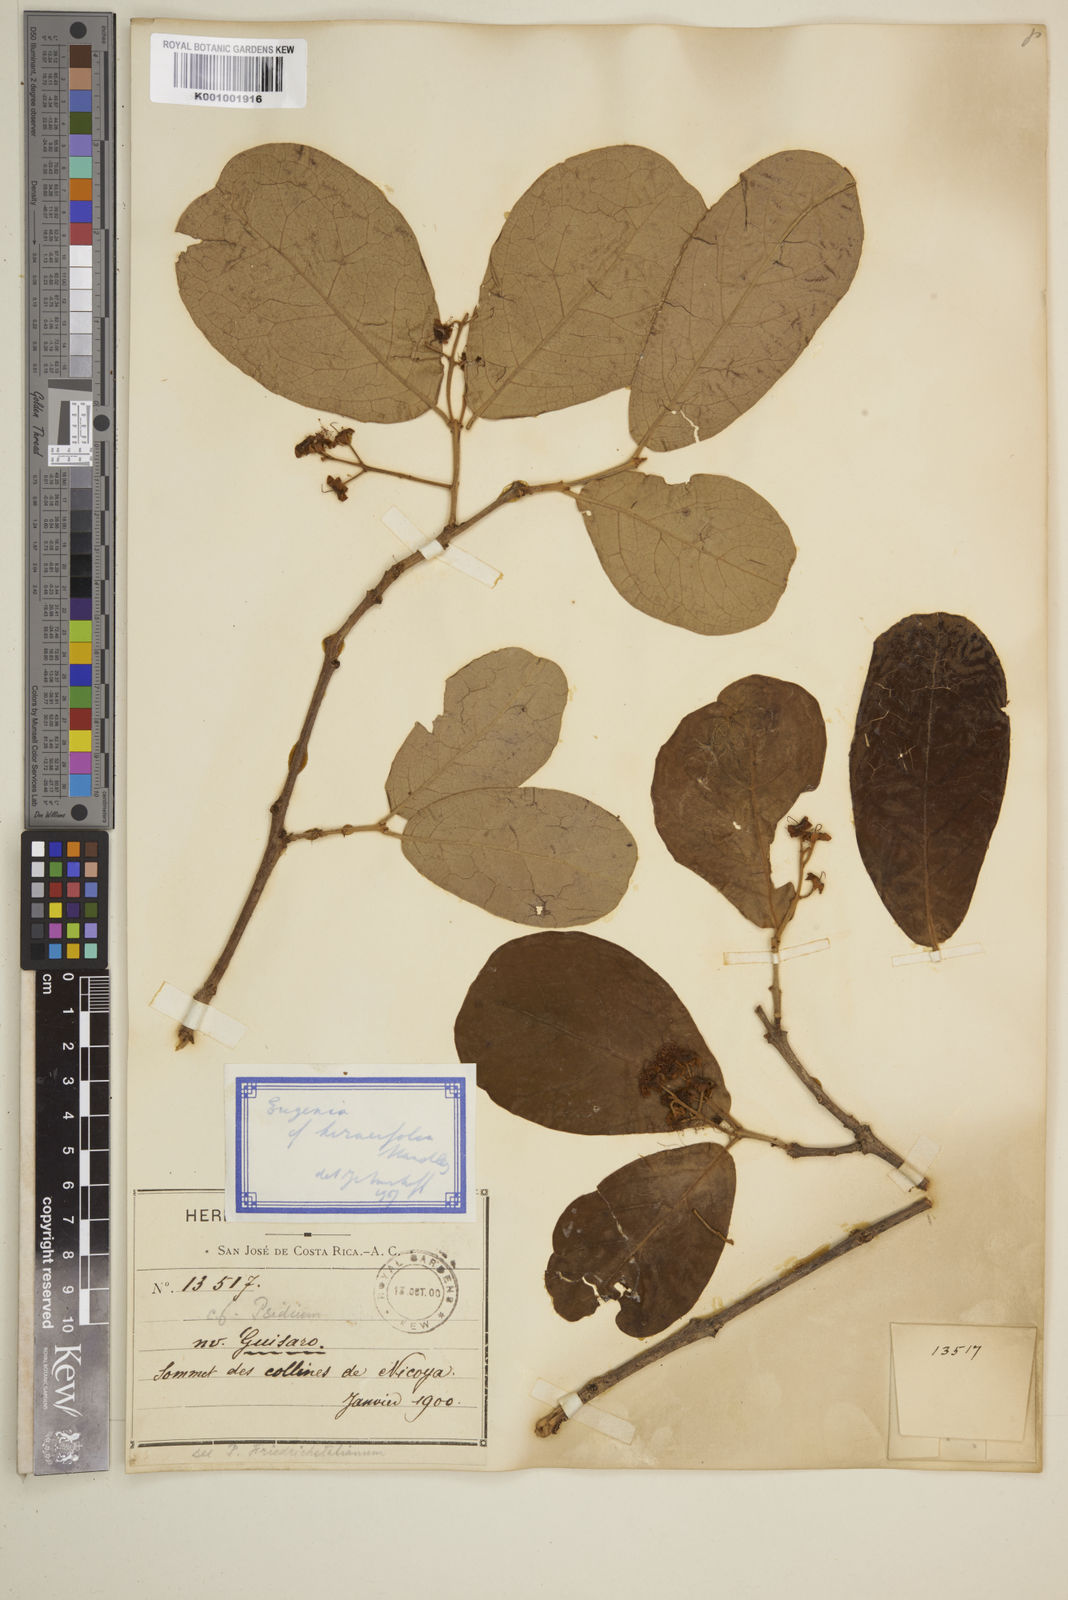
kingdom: Plantae
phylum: Tracheophyta
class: Magnoliopsida
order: Myrtales
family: Myrtaceae
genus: Eugenia
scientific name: Eugenia hiraeifolia
